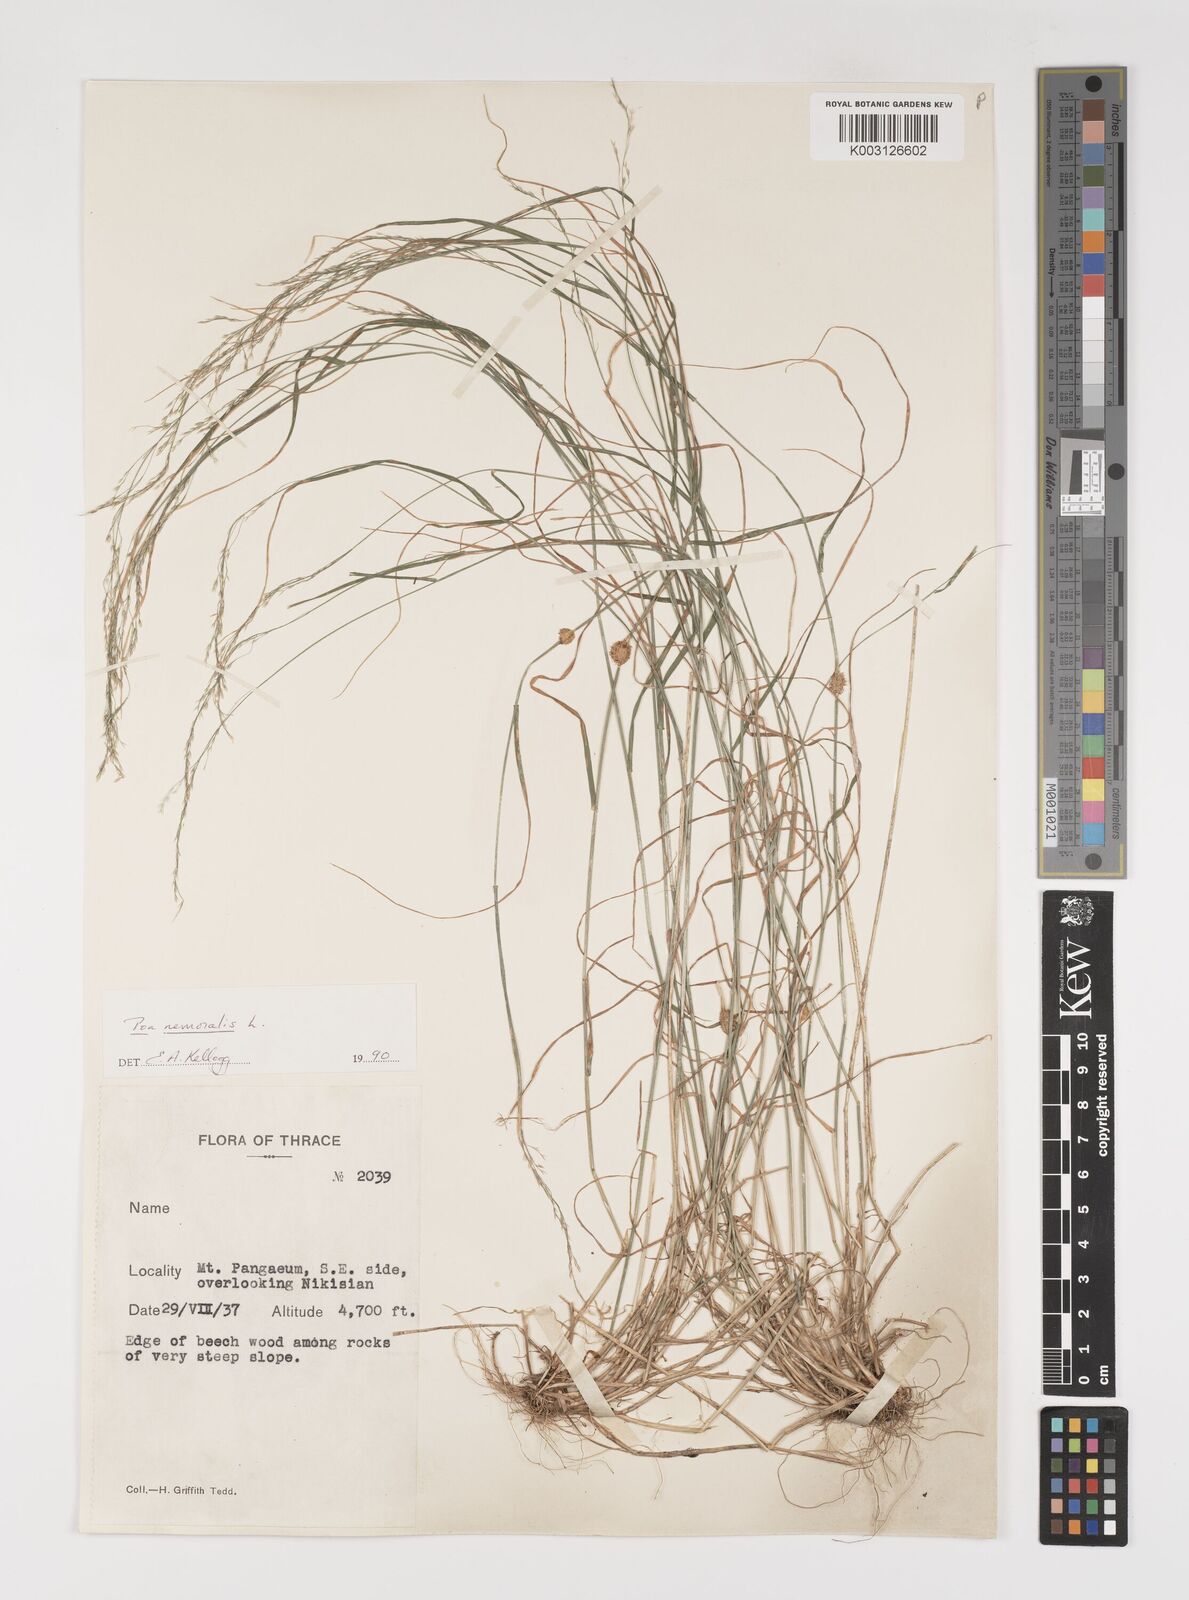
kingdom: Plantae
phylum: Tracheophyta
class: Liliopsida
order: Poales
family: Poaceae
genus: Poa
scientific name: Poa nemoralis
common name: Wood bluegrass
